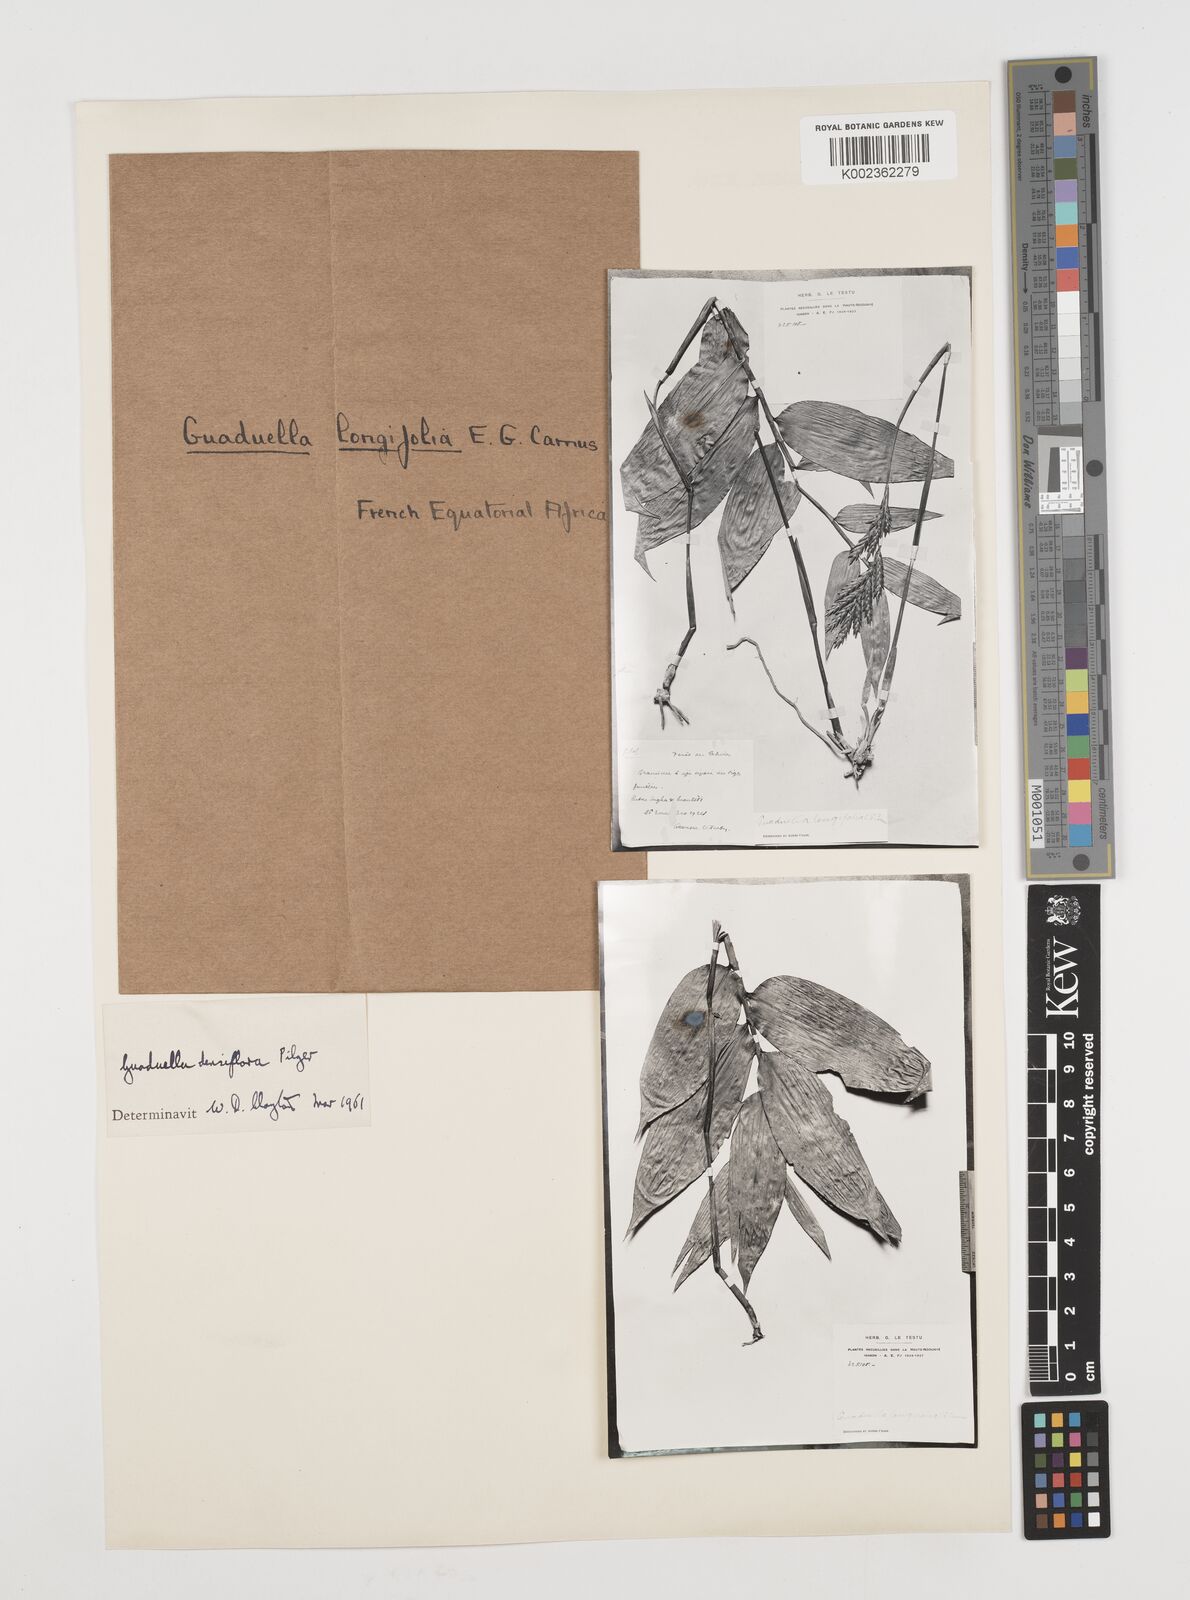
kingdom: Plantae
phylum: Tracheophyta
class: Liliopsida
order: Poales
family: Poaceae
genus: Guaduella
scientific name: Guaduella densiflora
